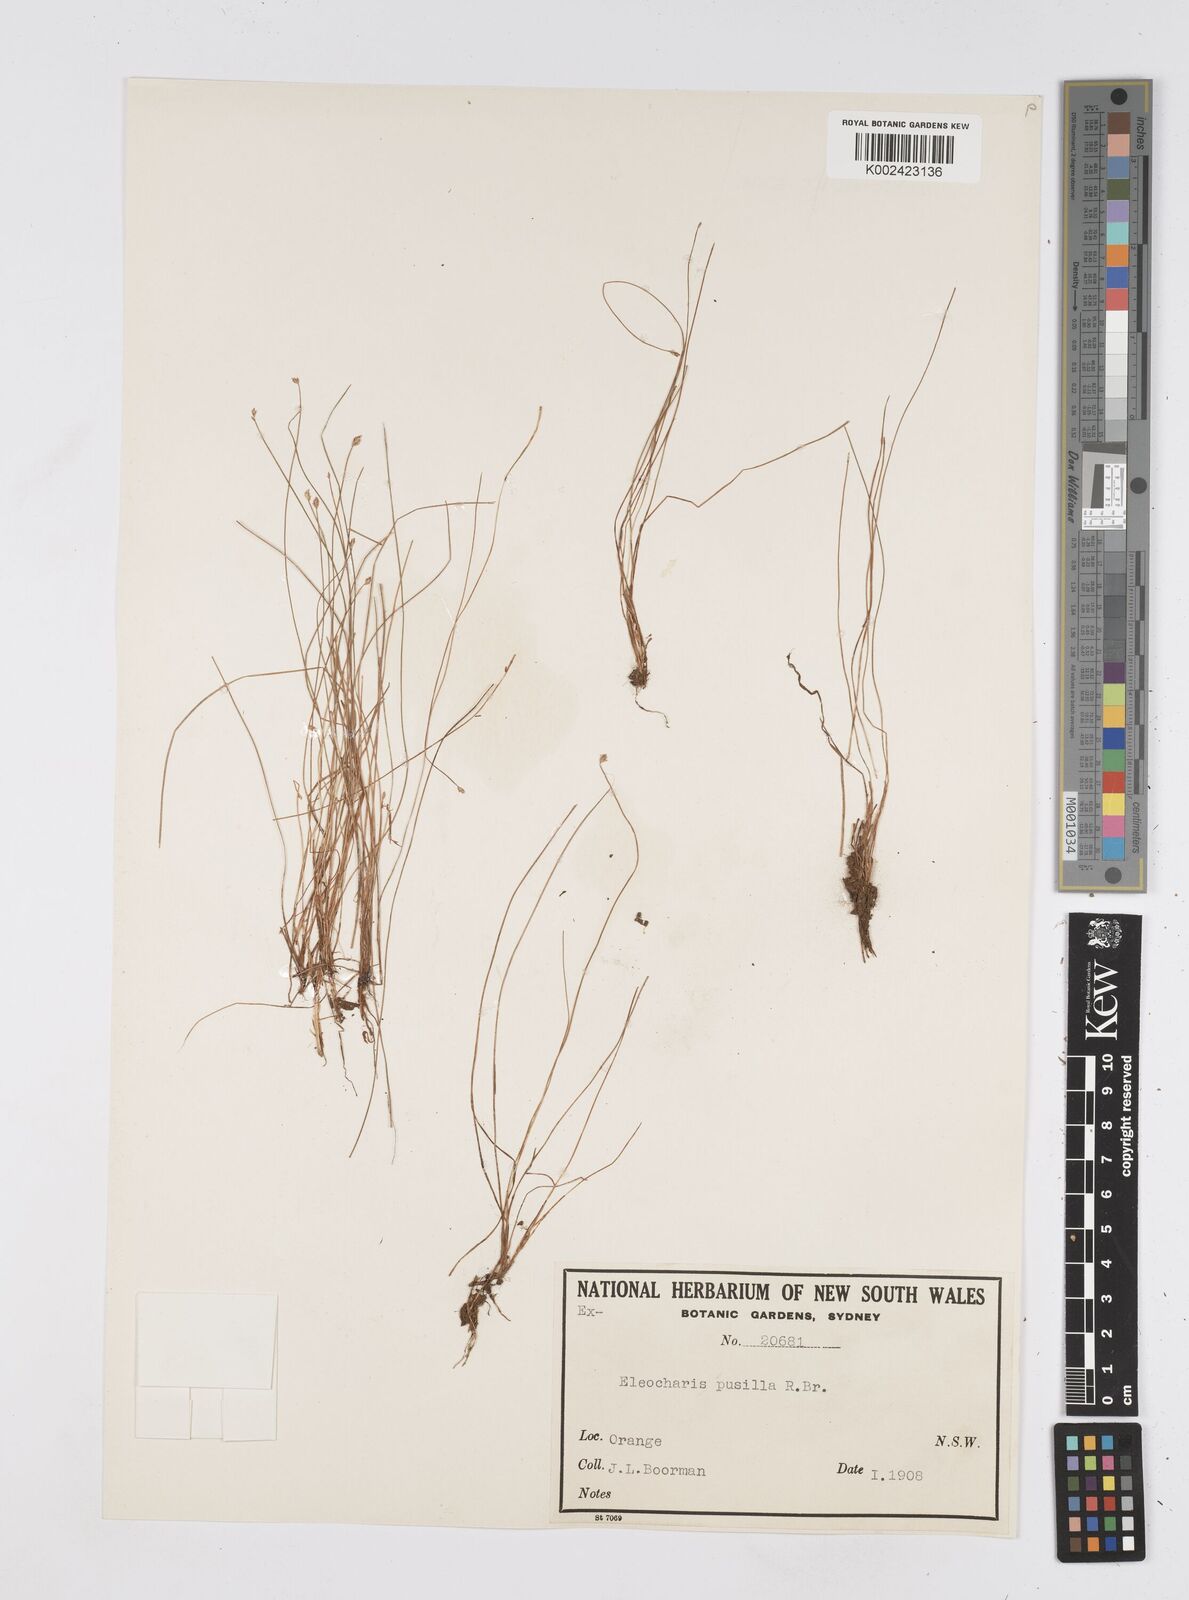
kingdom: Plantae
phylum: Tracheophyta
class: Liliopsida
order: Poales
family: Cyperaceae
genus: Eleocharis
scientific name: Eleocharis pusilla
